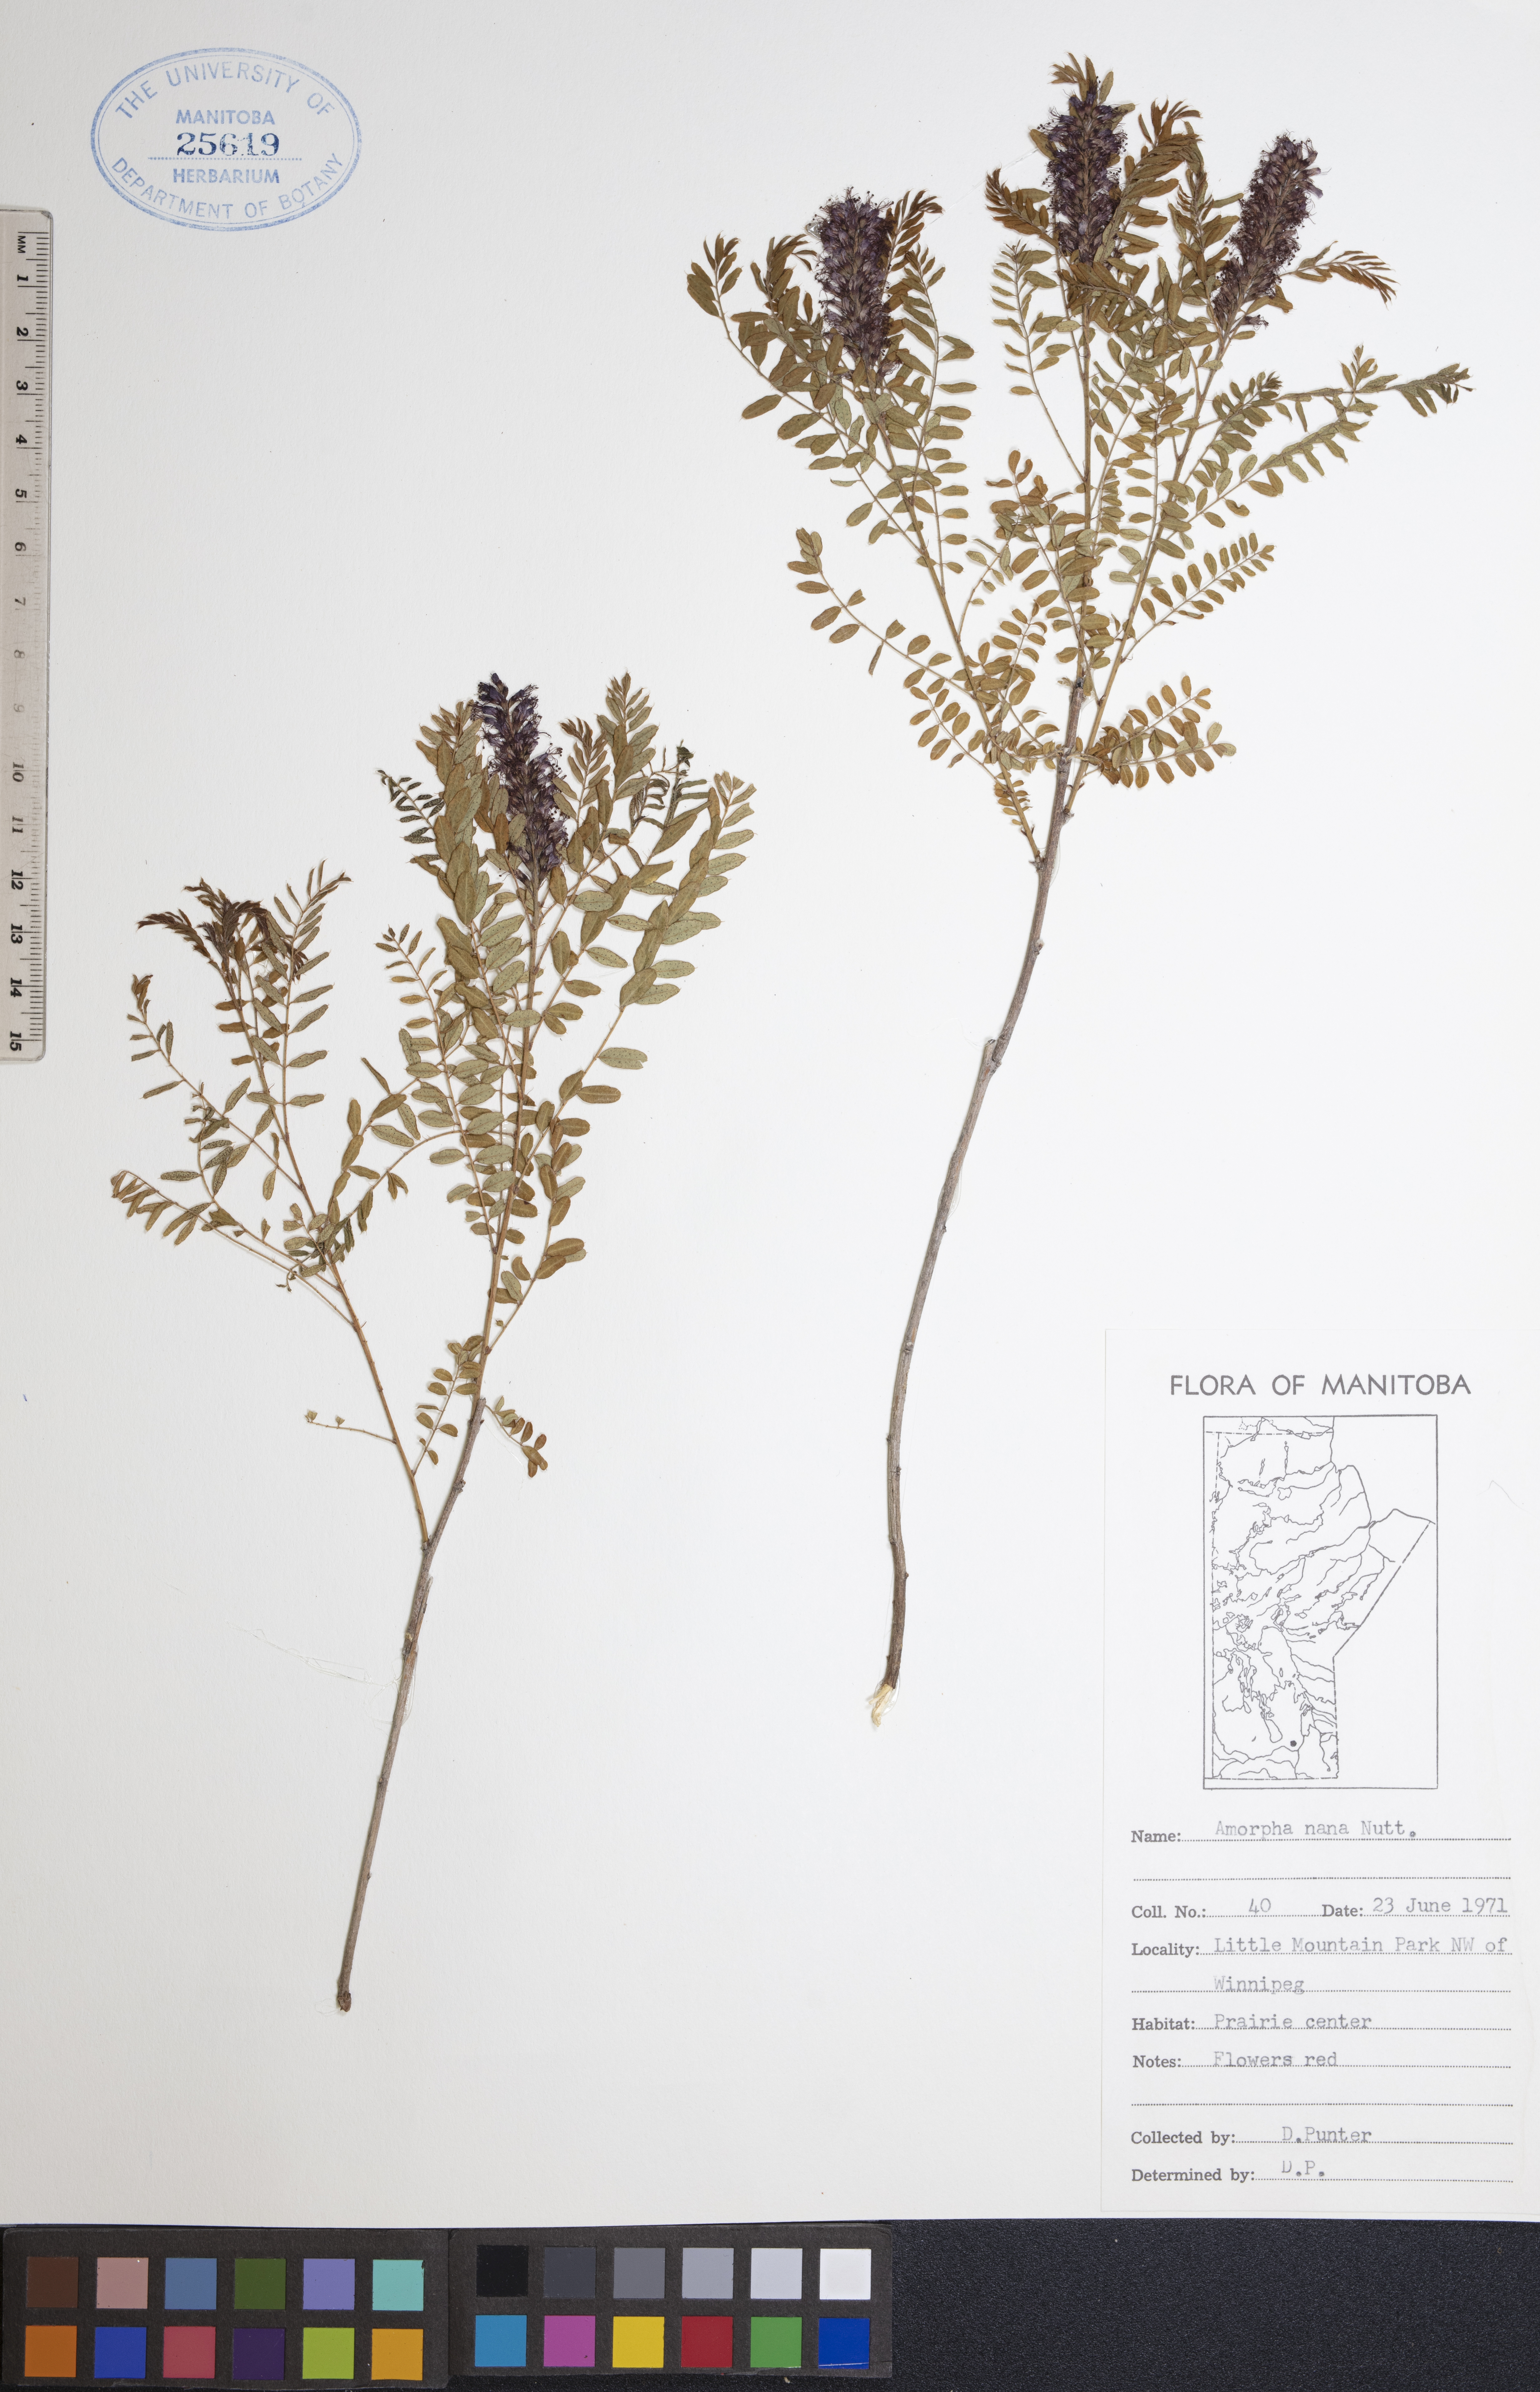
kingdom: Plantae
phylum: Tracheophyta
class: Magnoliopsida
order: Fabales
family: Fabaceae
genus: Amorpha
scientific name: Amorpha nana
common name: Fragrant false indigo
